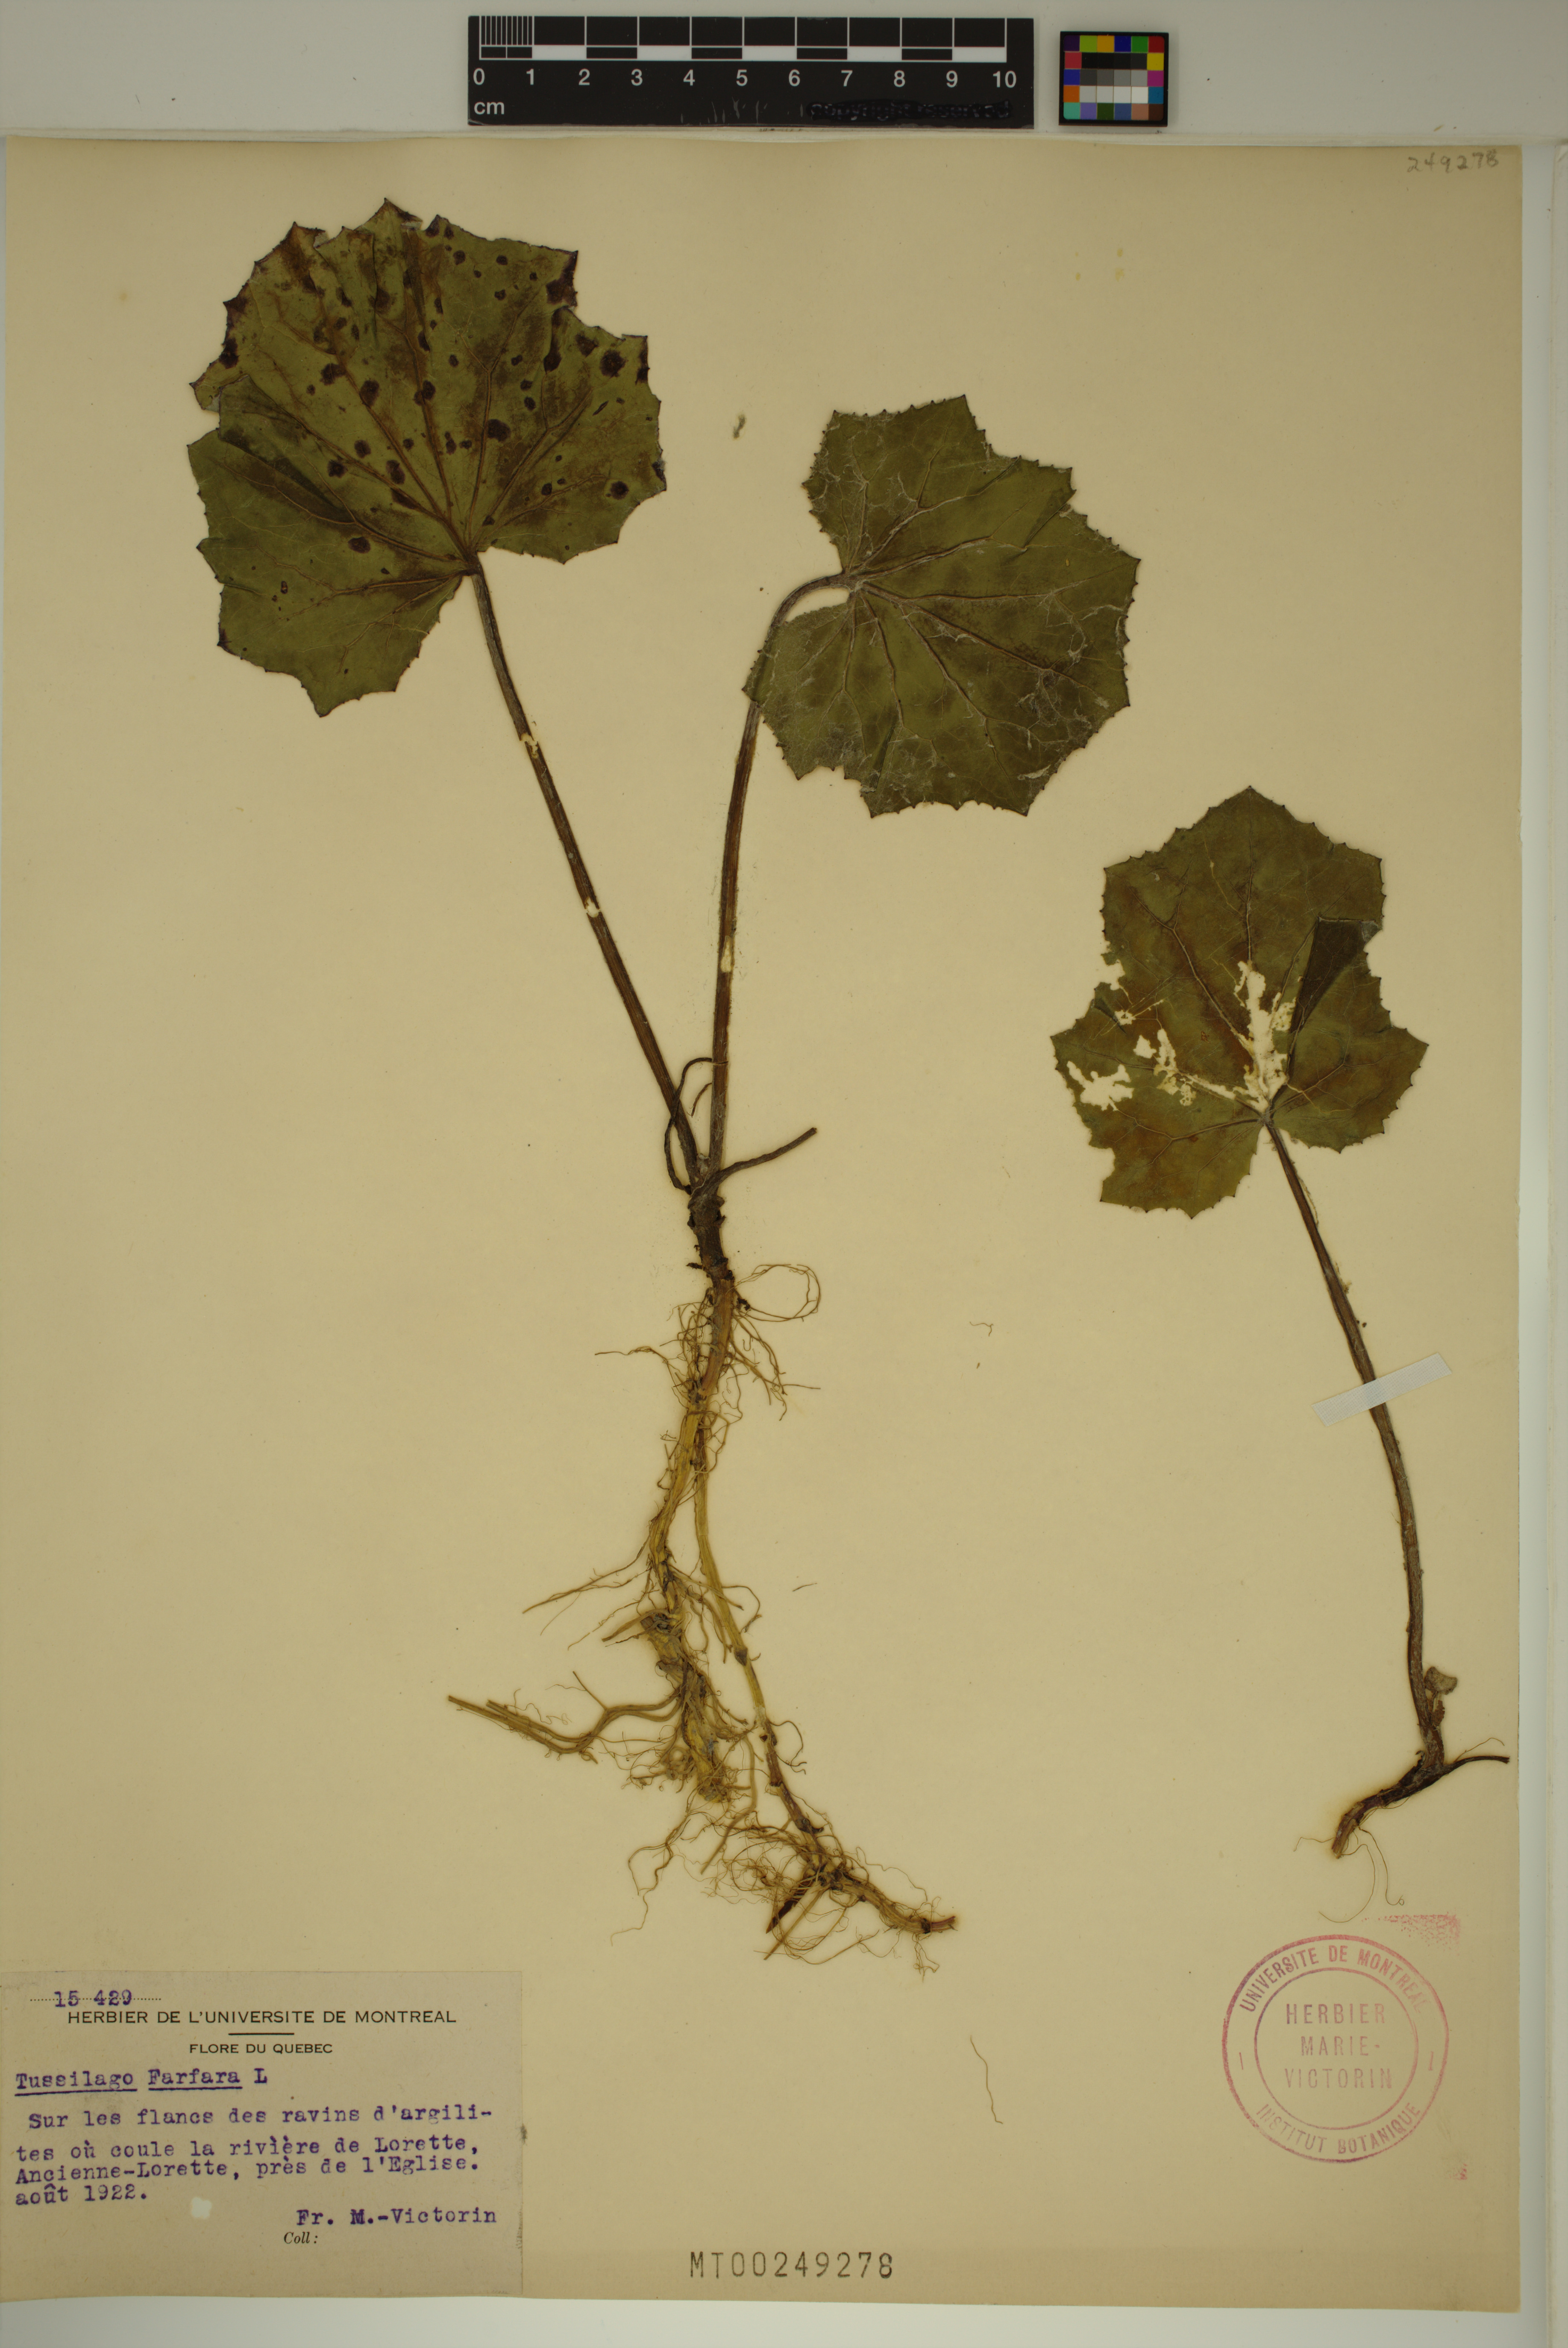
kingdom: Plantae
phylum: Tracheophyta
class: Magnoliopsida
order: Asterales
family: Asteraceae
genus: Tussilago
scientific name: Tussilago farfara
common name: Coltsfoot
